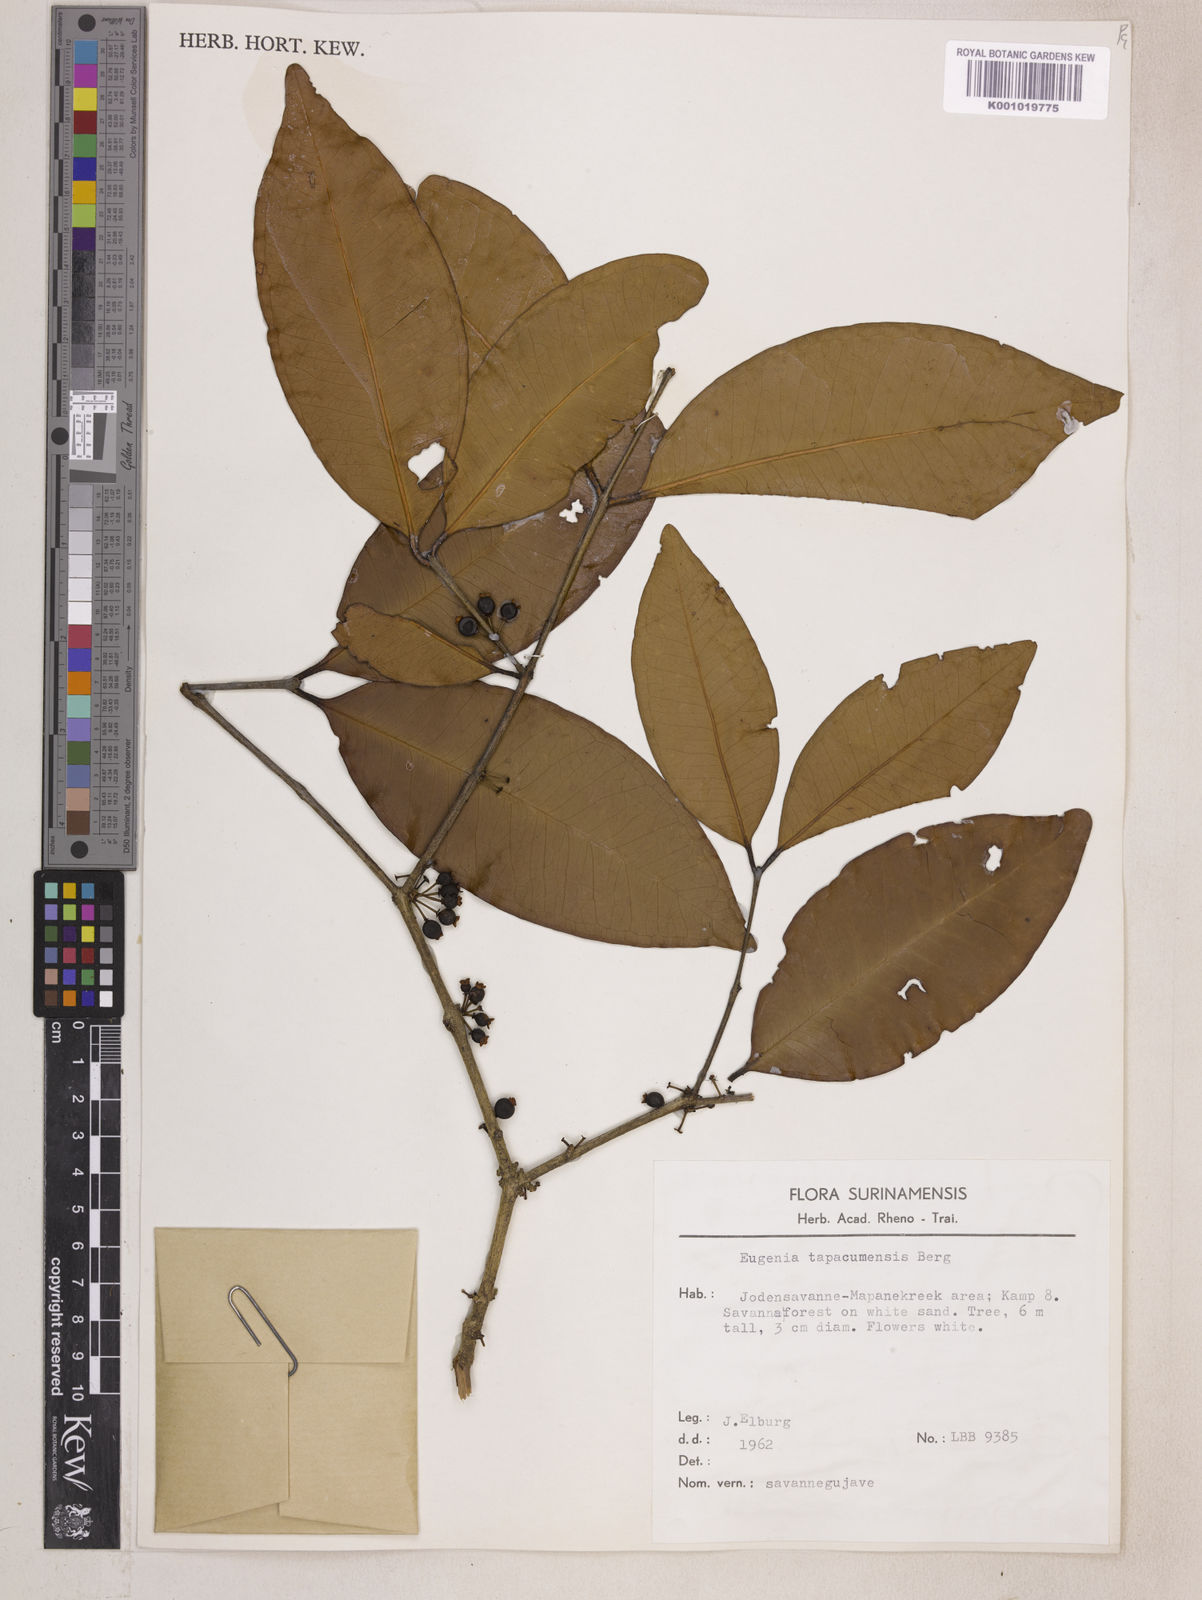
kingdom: Plantae
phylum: Tracheophyta
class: Magnoliopsida
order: Myrtales
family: Myrtaceae
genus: Eugenia
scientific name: Eugenia stictopetala
